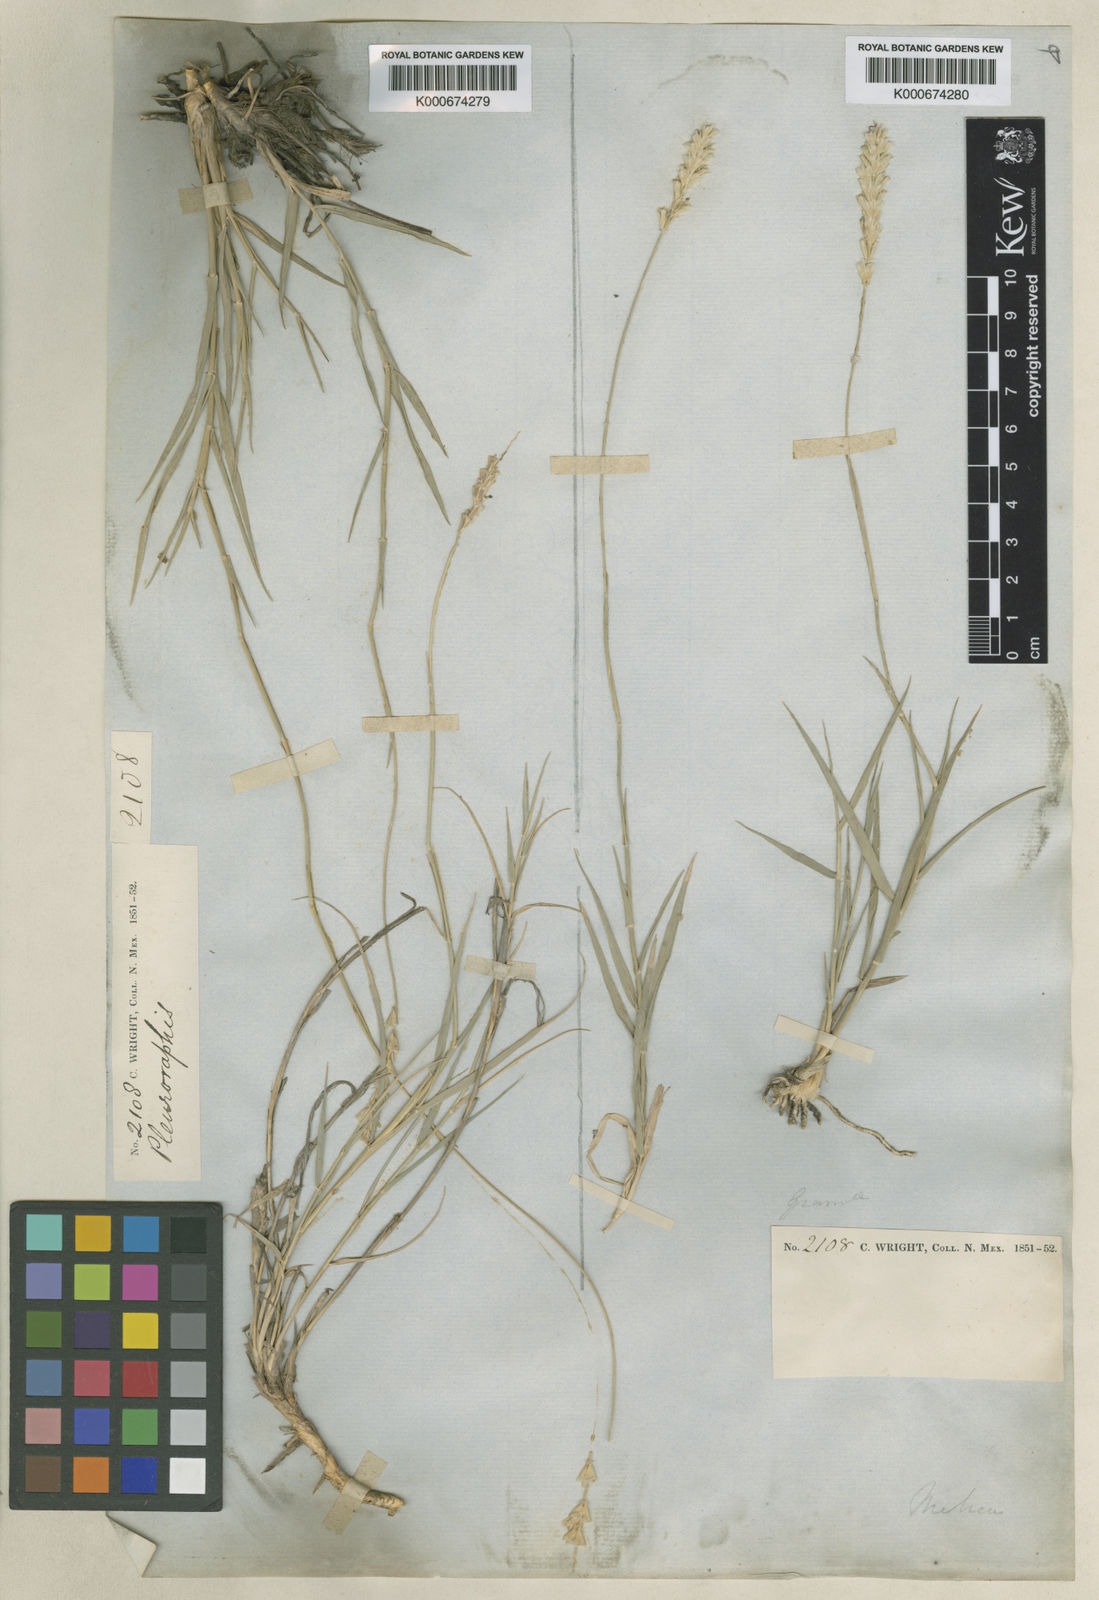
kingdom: Plantae
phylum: Tracheophyta
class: Liliopsida
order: Poales
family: Poaceae
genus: Hilaria
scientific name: Hilaria mutica
